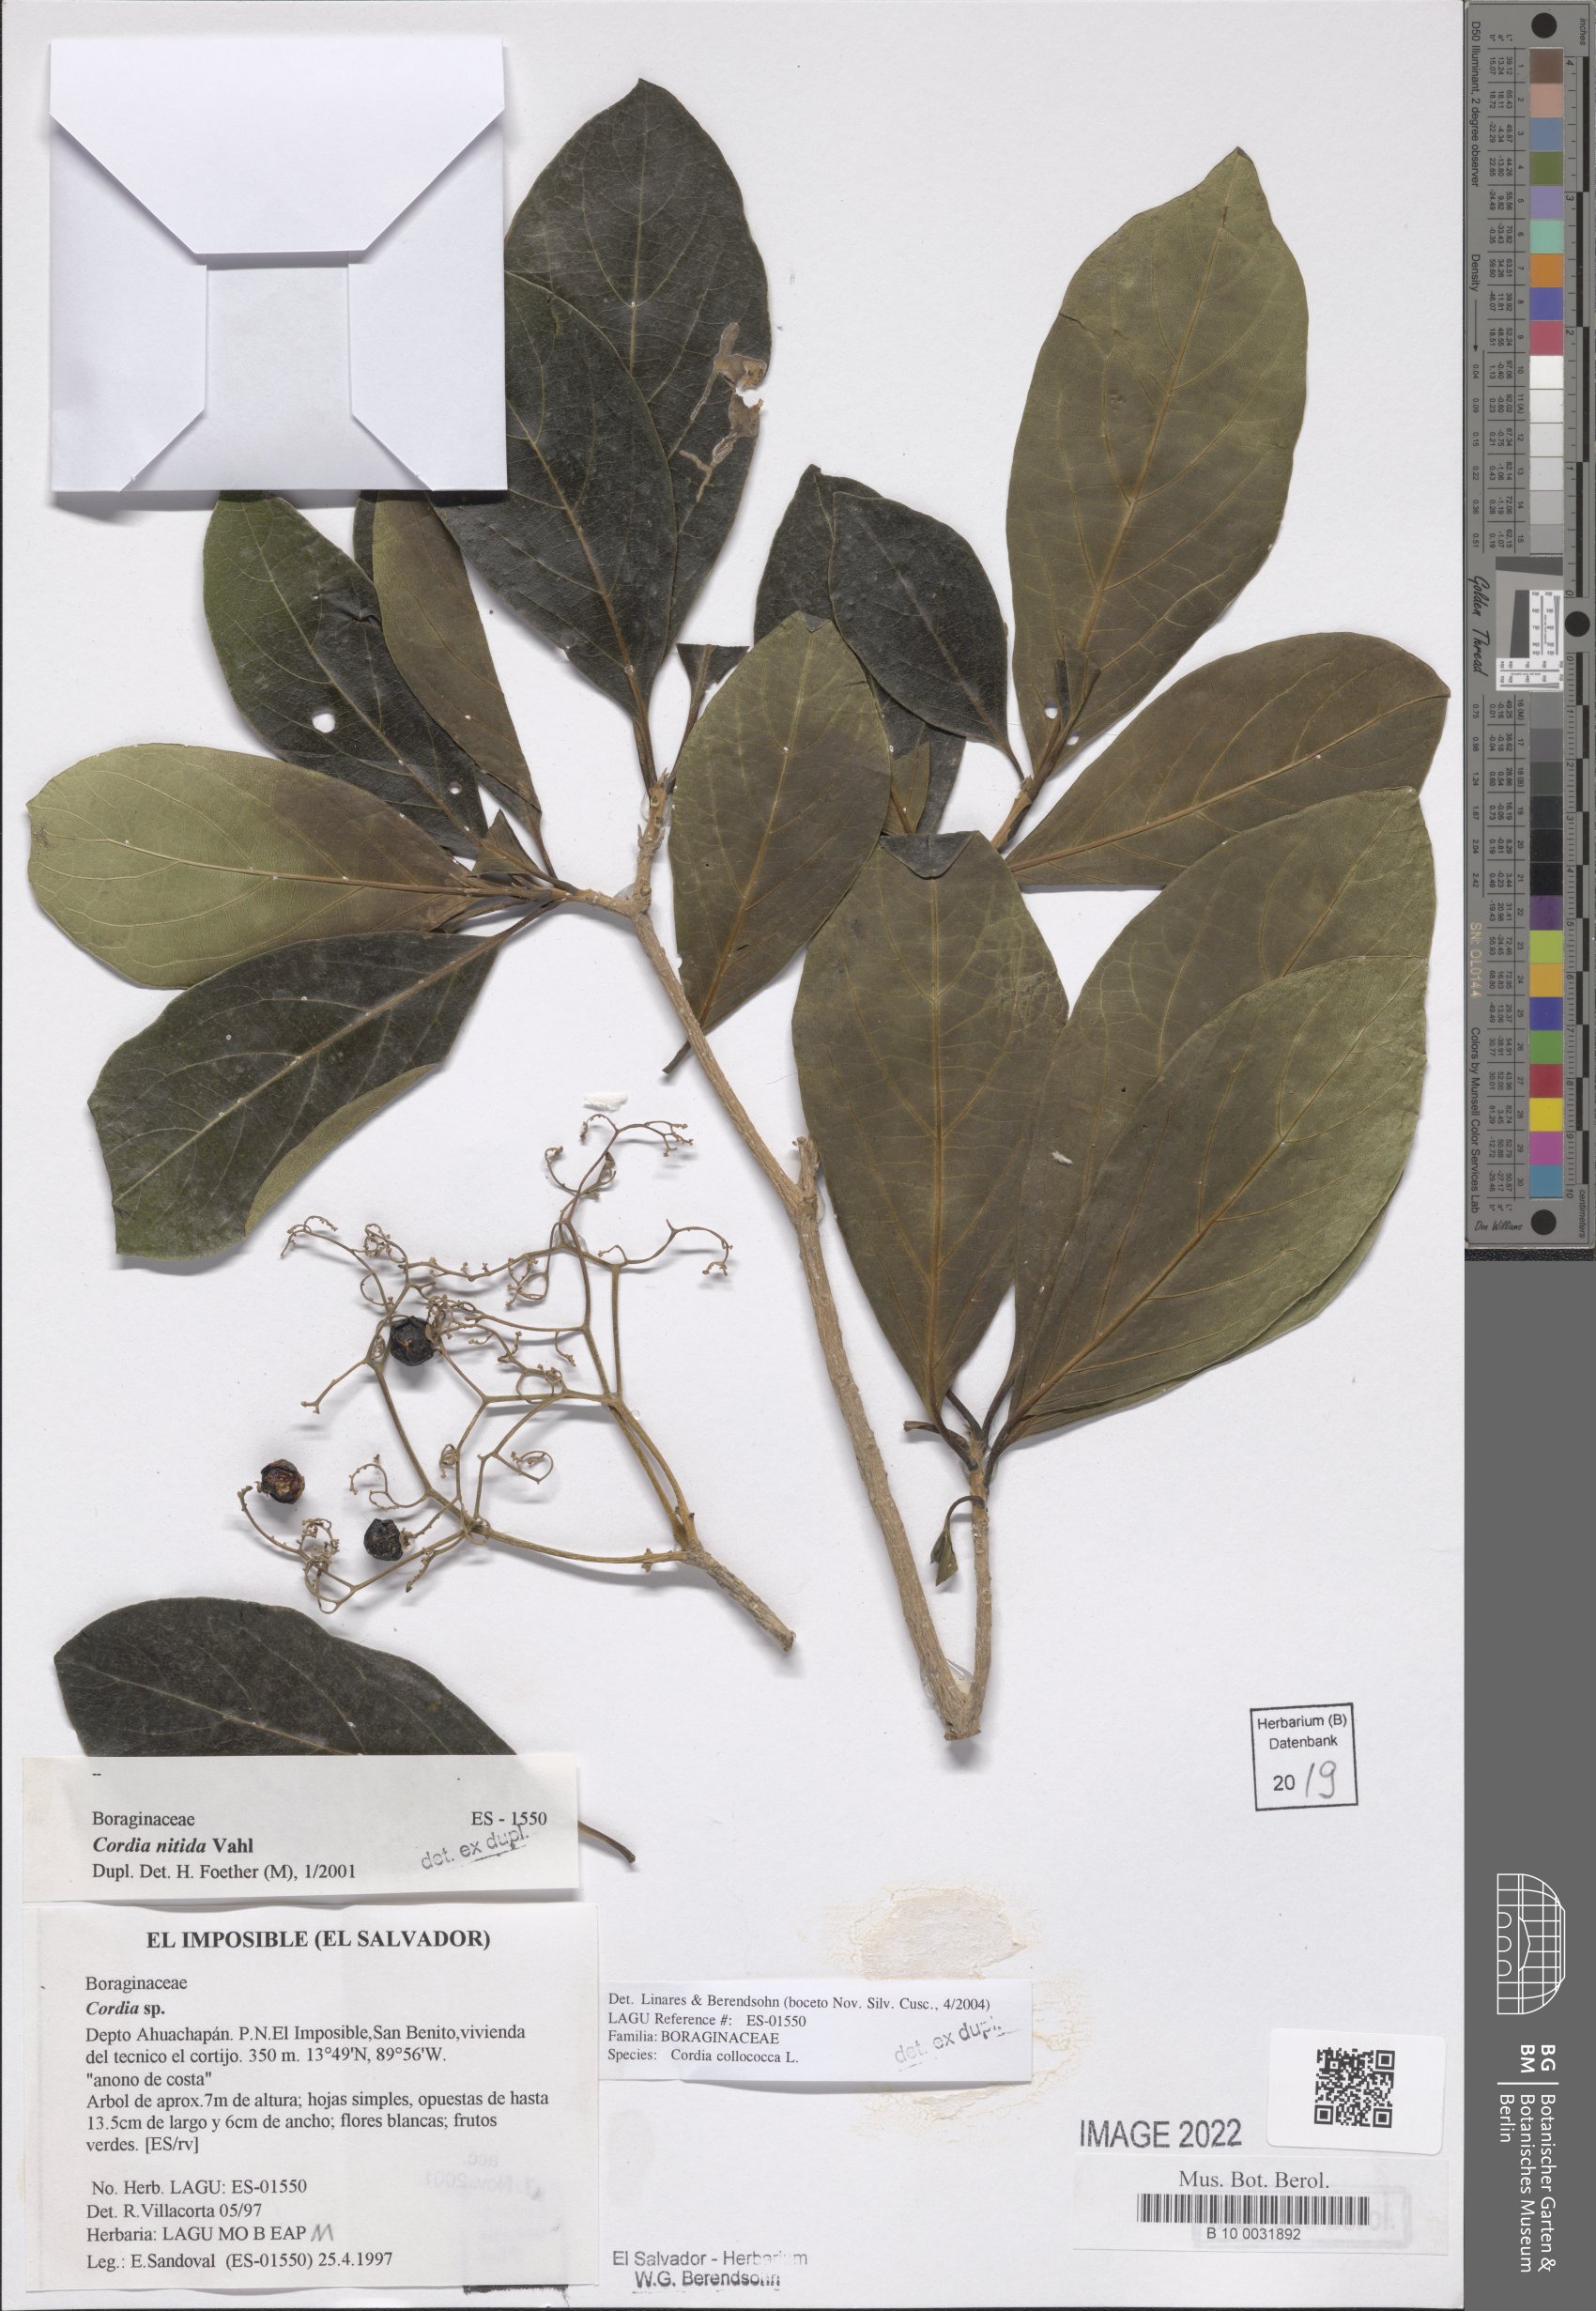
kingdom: Plantae
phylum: Tracheophyta
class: Magnoliopsida
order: Boraginales
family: Cordiaceae
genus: Cordia
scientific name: Cordia collococca
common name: Clammy cherry
